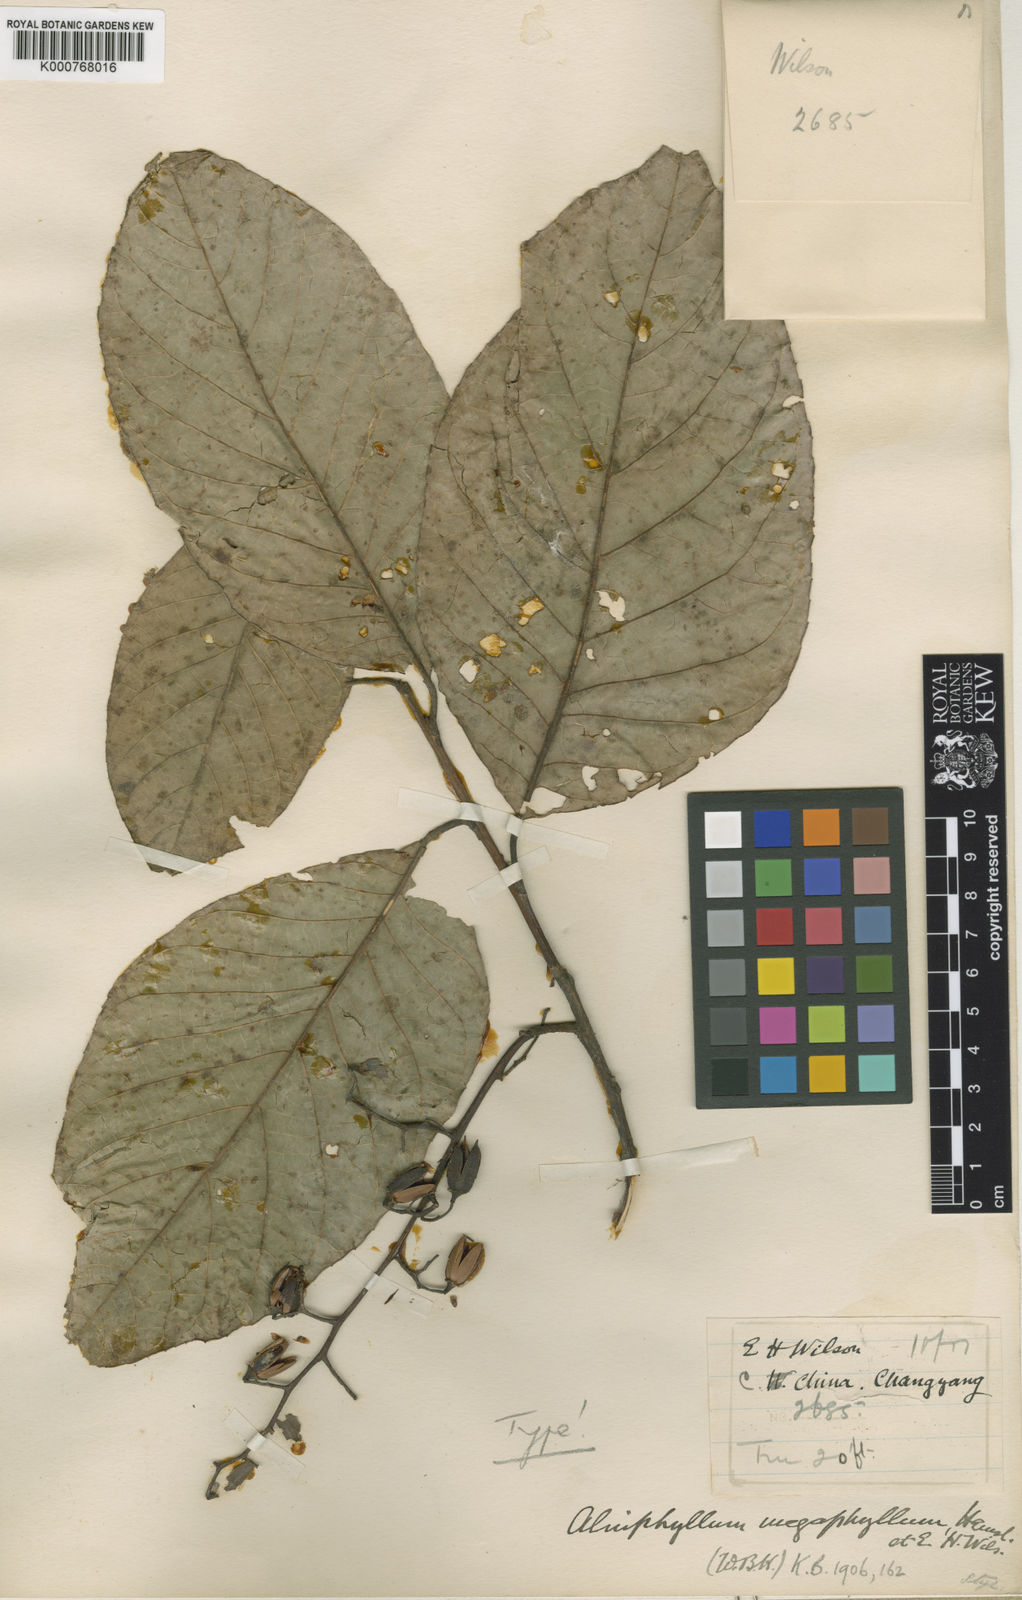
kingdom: Plantae
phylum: Tracheophyta
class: Magnoliopsida
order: Ericales
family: Styracaceae
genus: Alniphyllum
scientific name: Alniphyllum fortunei
